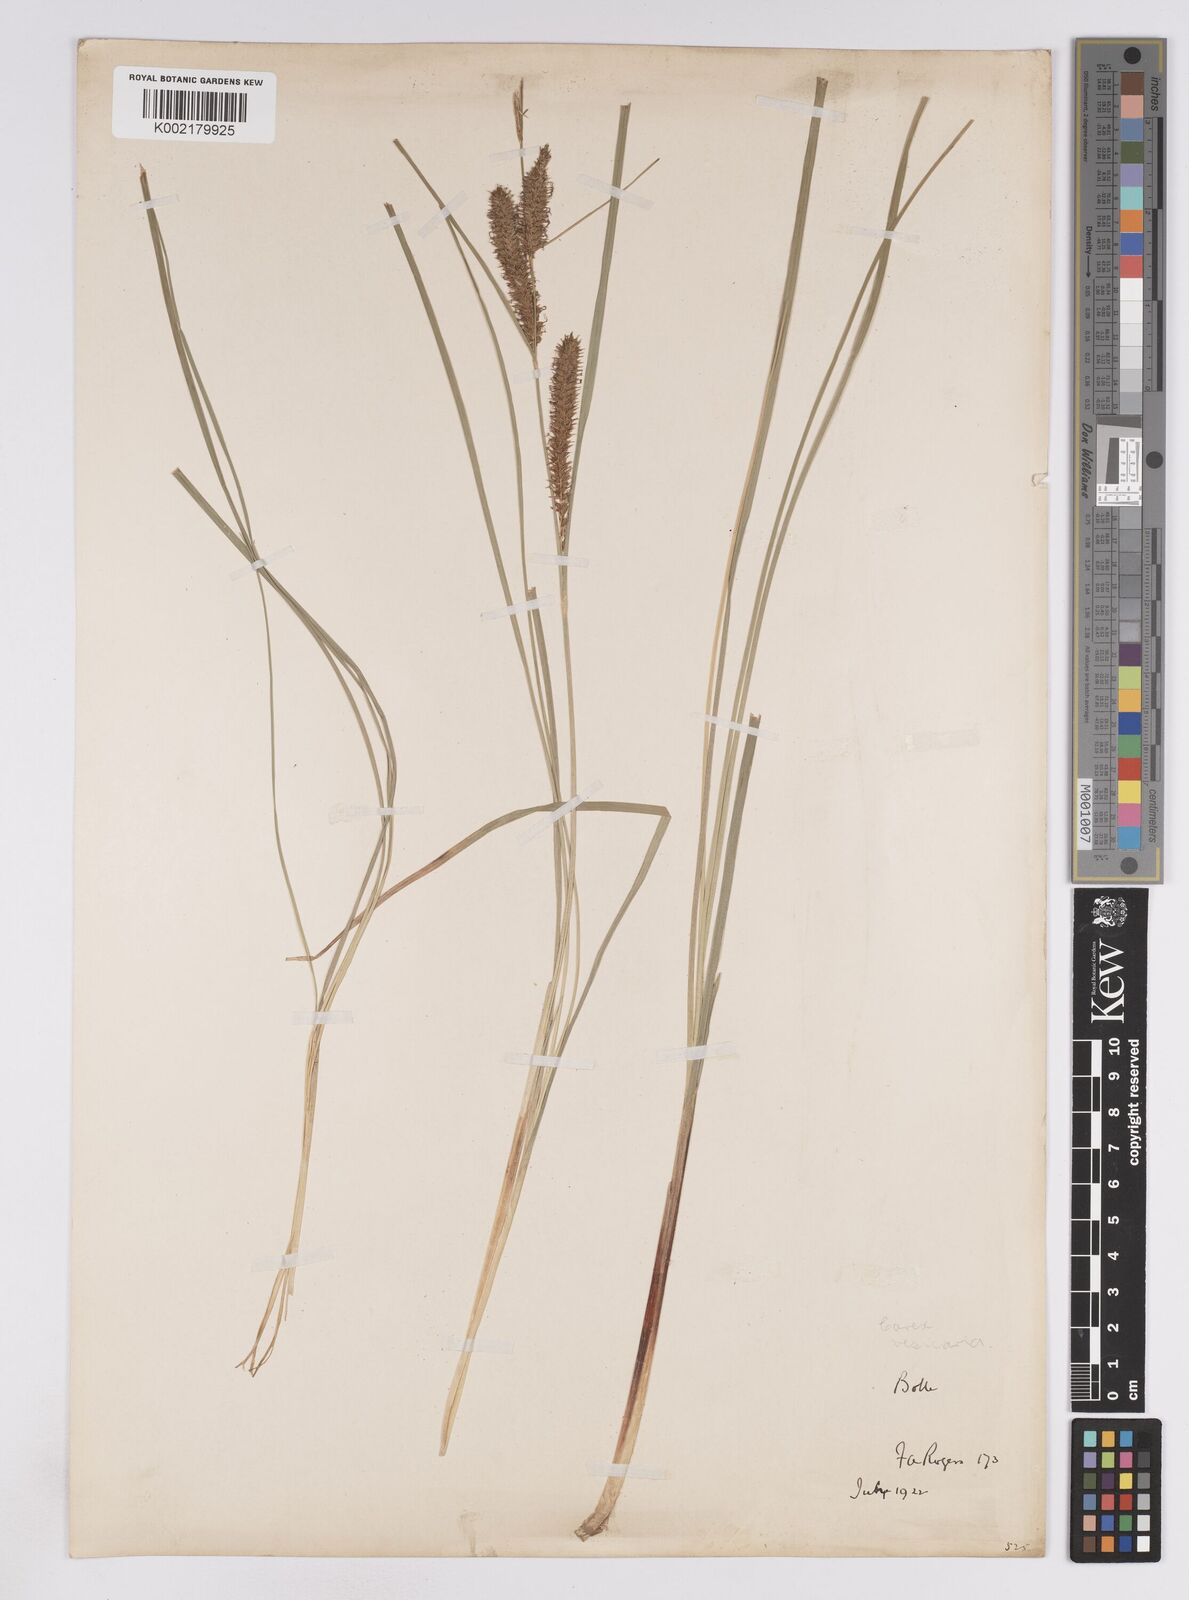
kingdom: Plantae
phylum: Tracheophyta
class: Liliopsida
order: Poales
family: Cyperaceae
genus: Carex
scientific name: Carex rostrata
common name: Bottle sedge
